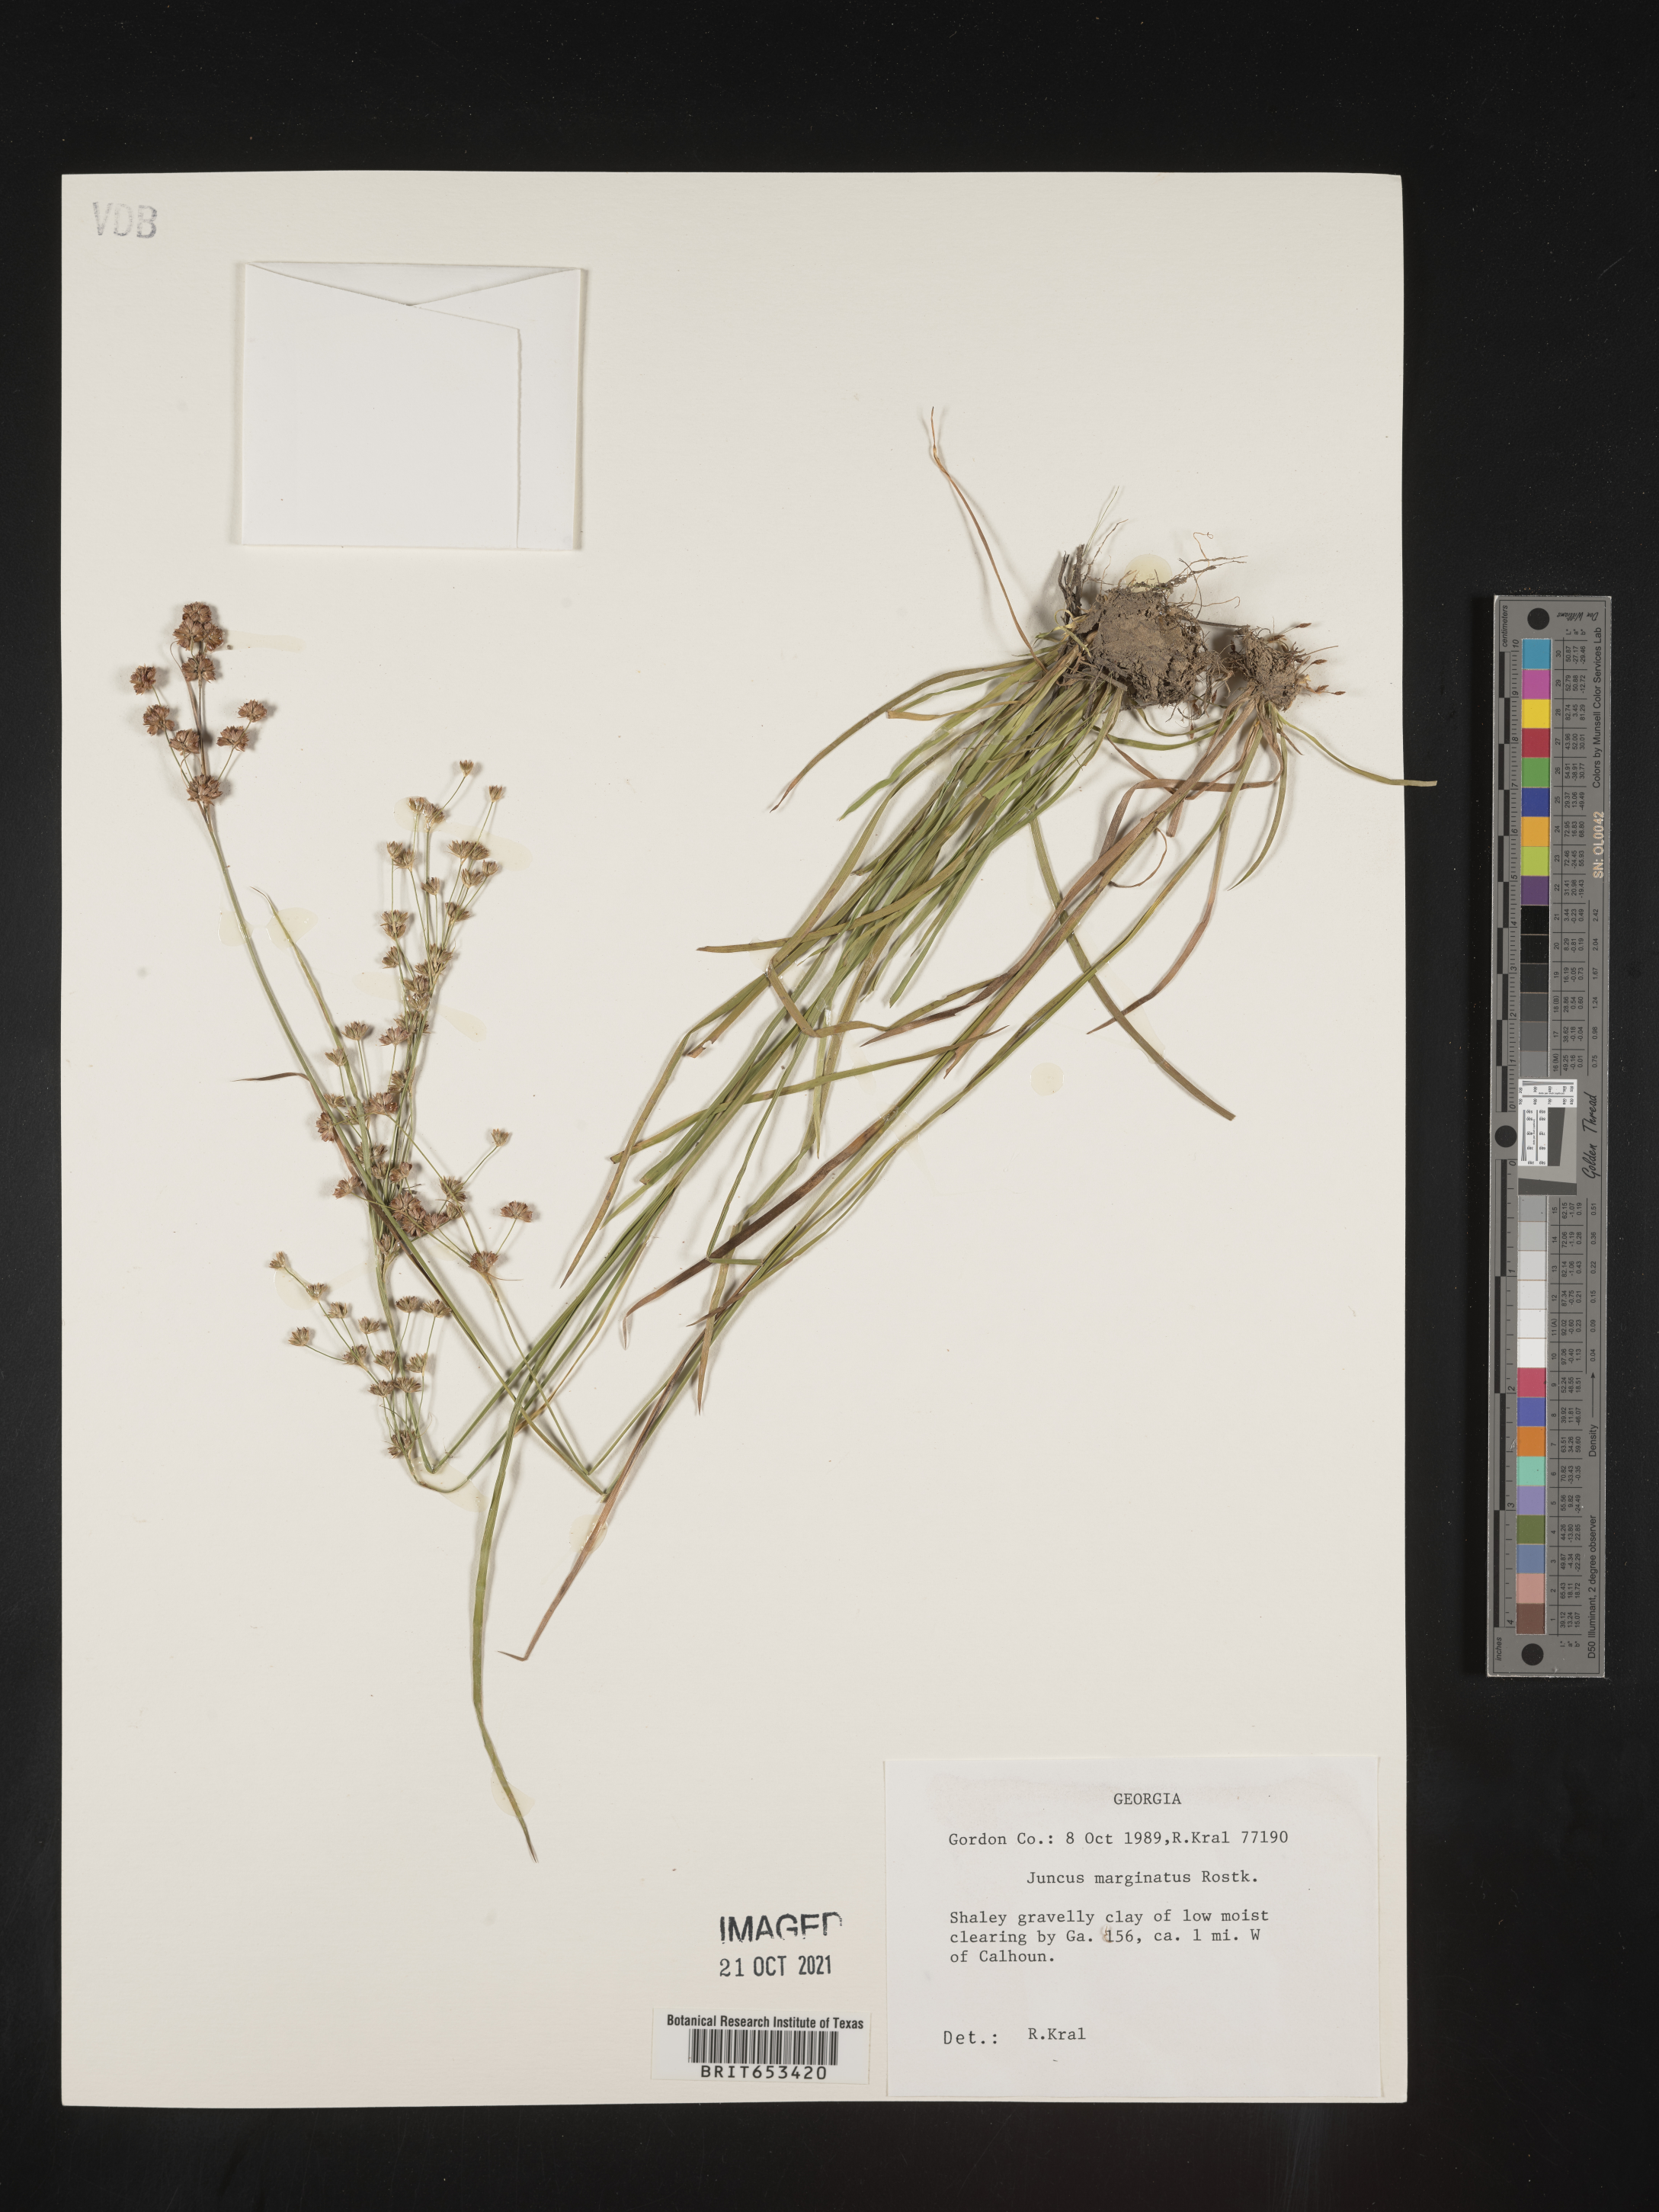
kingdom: Plantae
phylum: Tracheophyta
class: Liliopsida
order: Poales
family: Juncaceae
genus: Juncus
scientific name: Juncus marginatus
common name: Grass-leaf rush
